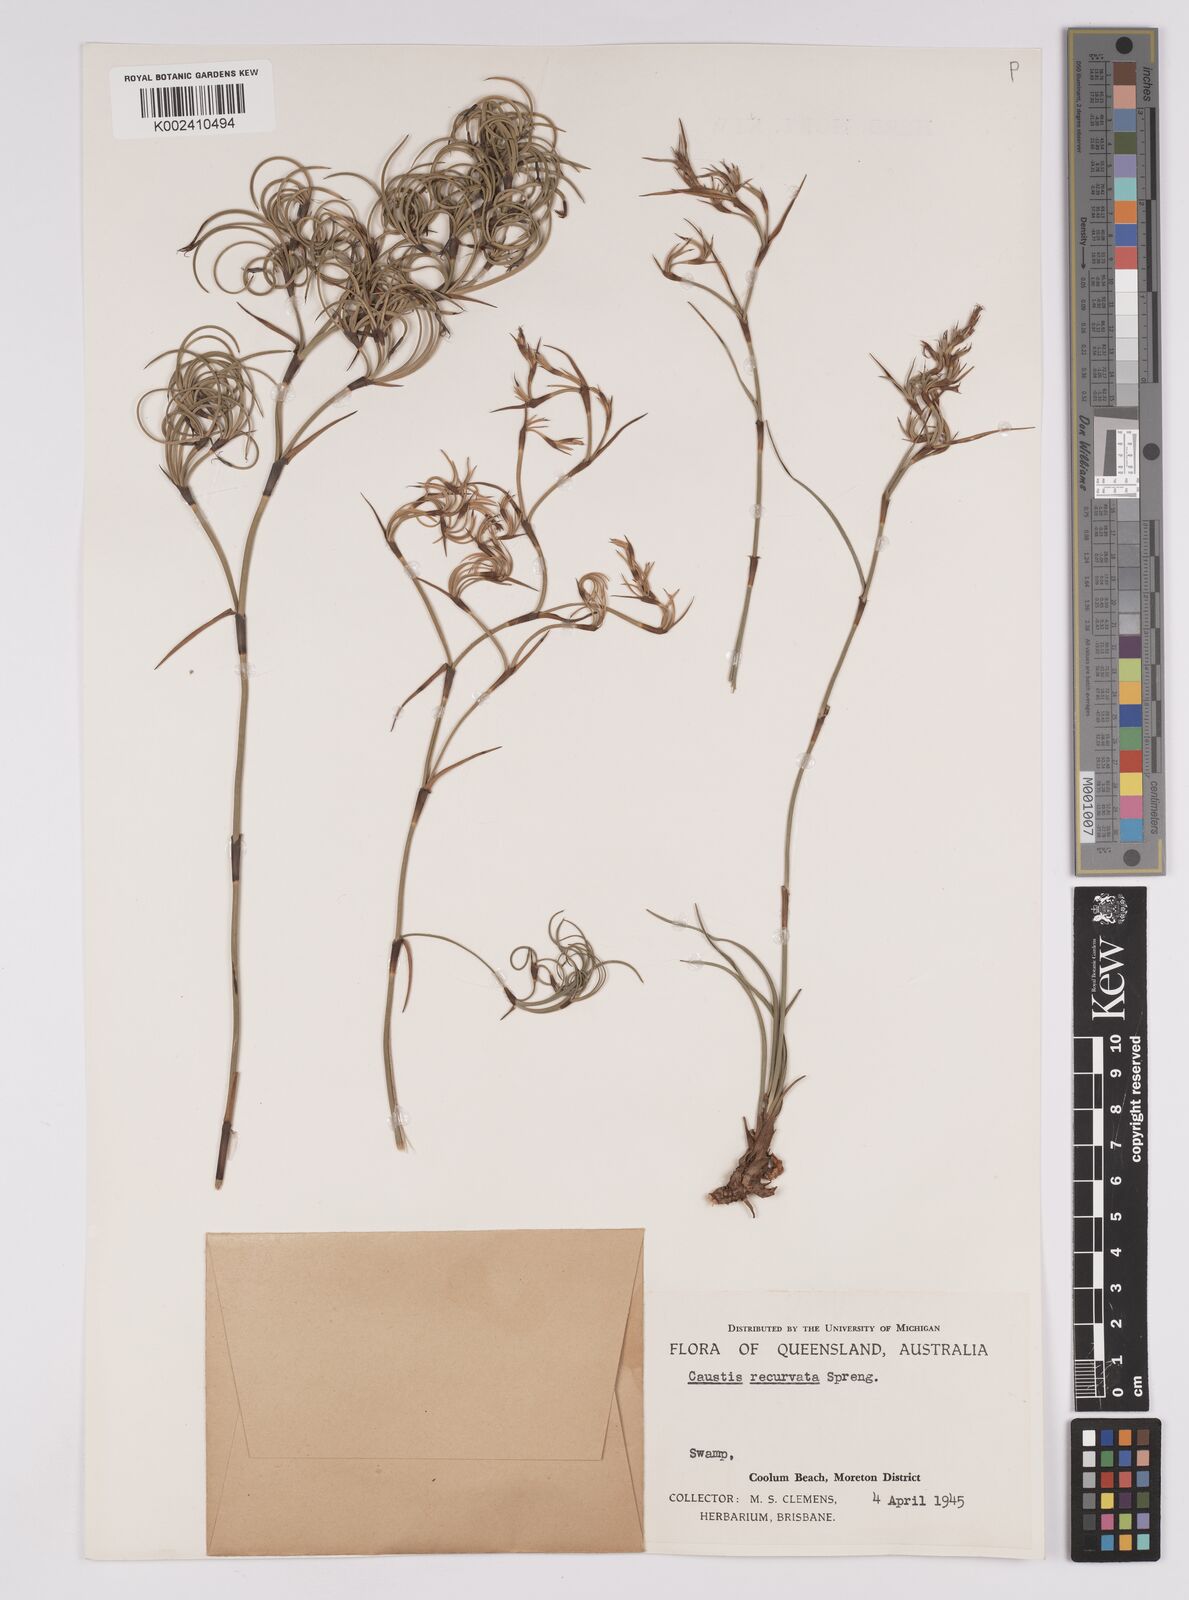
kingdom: Plantae
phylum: Tracheophyta
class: Liliopsida
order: Poales
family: Cyperaceae
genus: Caustis
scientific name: Caustis recurvata
